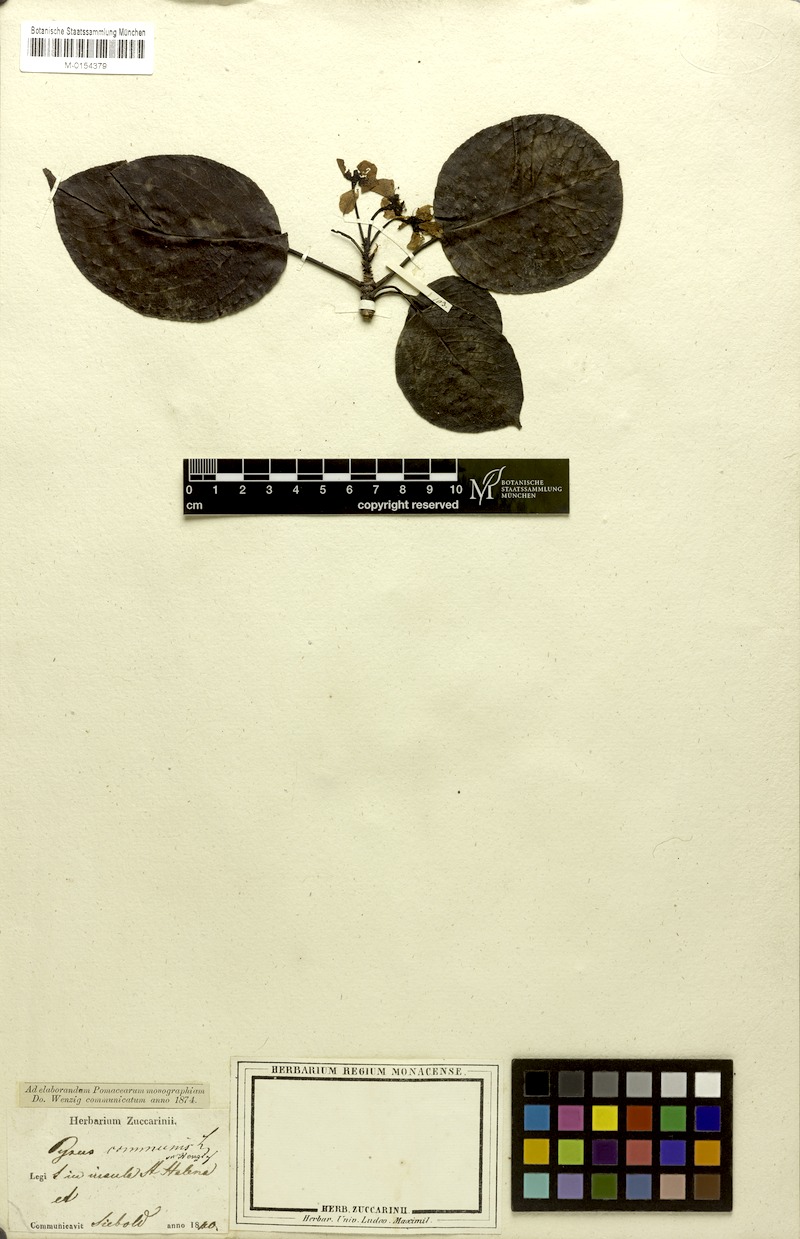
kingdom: Plantae
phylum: Tracheophyta
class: Magnoliopsida
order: Rosales
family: Rosaceae
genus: Pyrus
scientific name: Pyrus communis
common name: Pear
